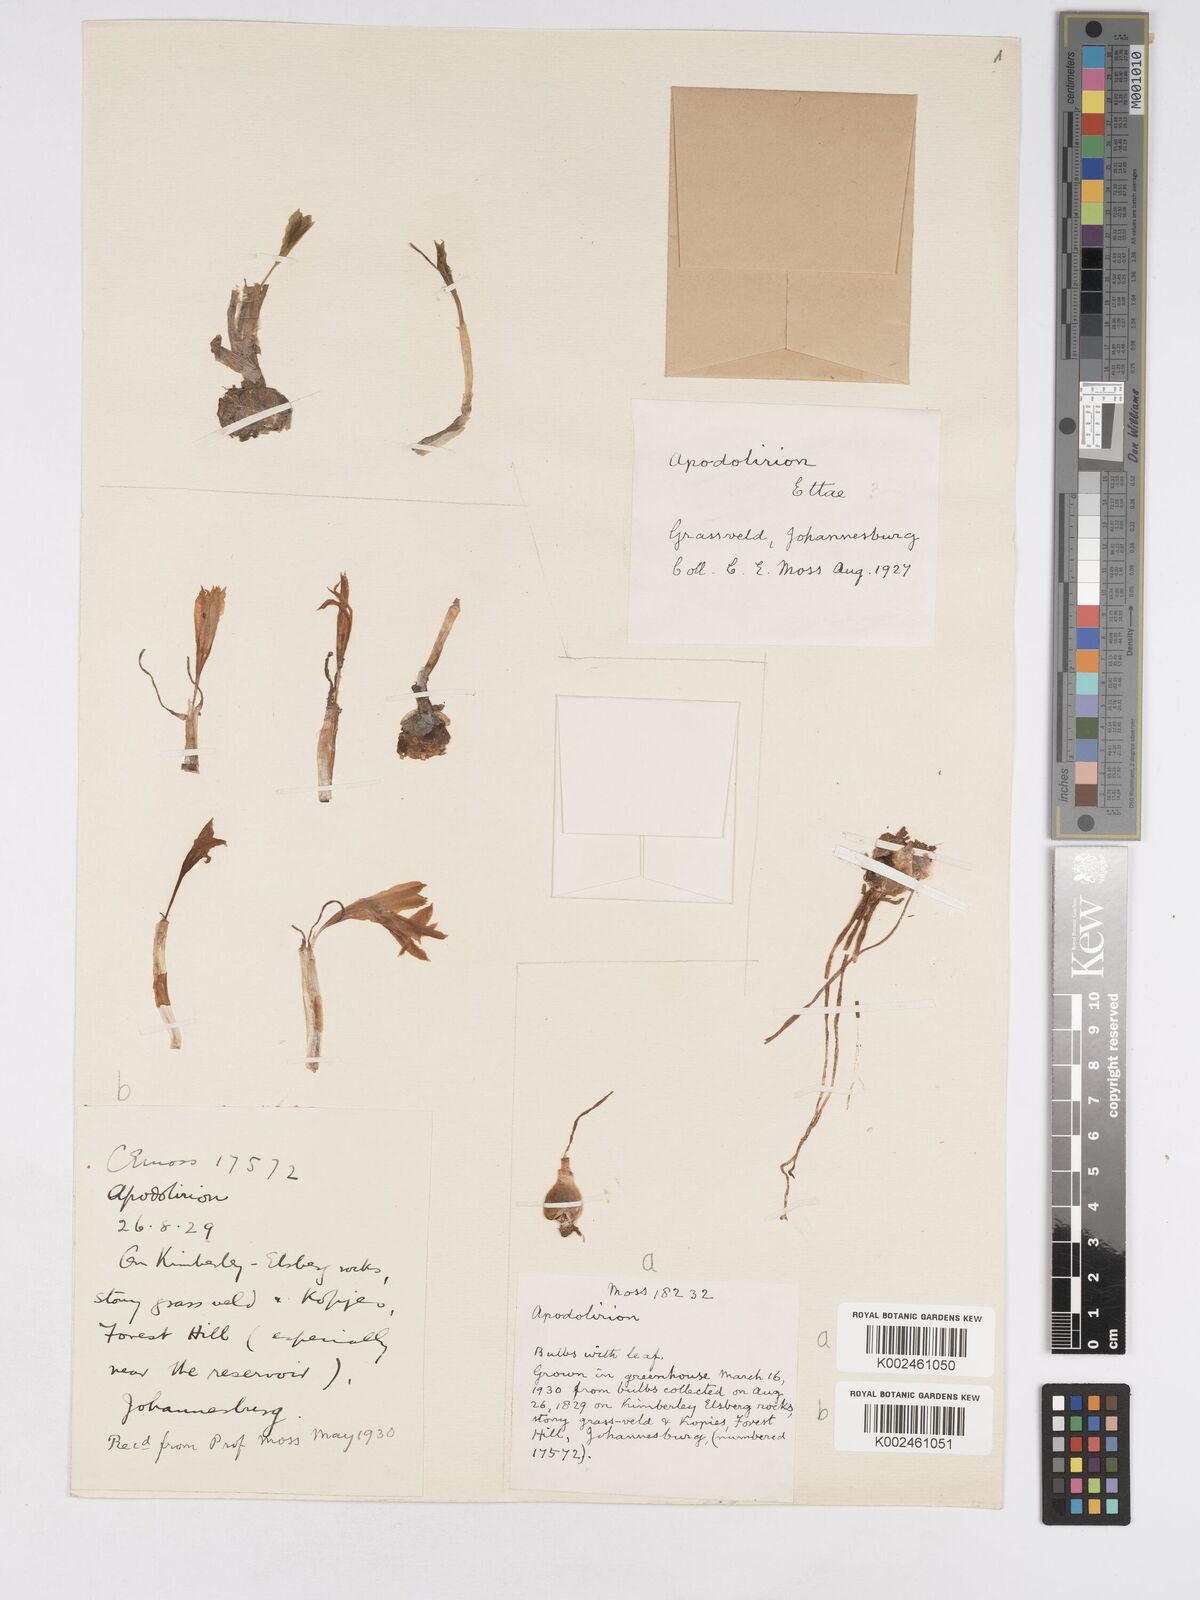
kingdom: Plantae
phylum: Tracheophyta
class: Liliopsida
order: Asparagales
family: Amaryllidaceae
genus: Apodolirion
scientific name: Apodolirion
